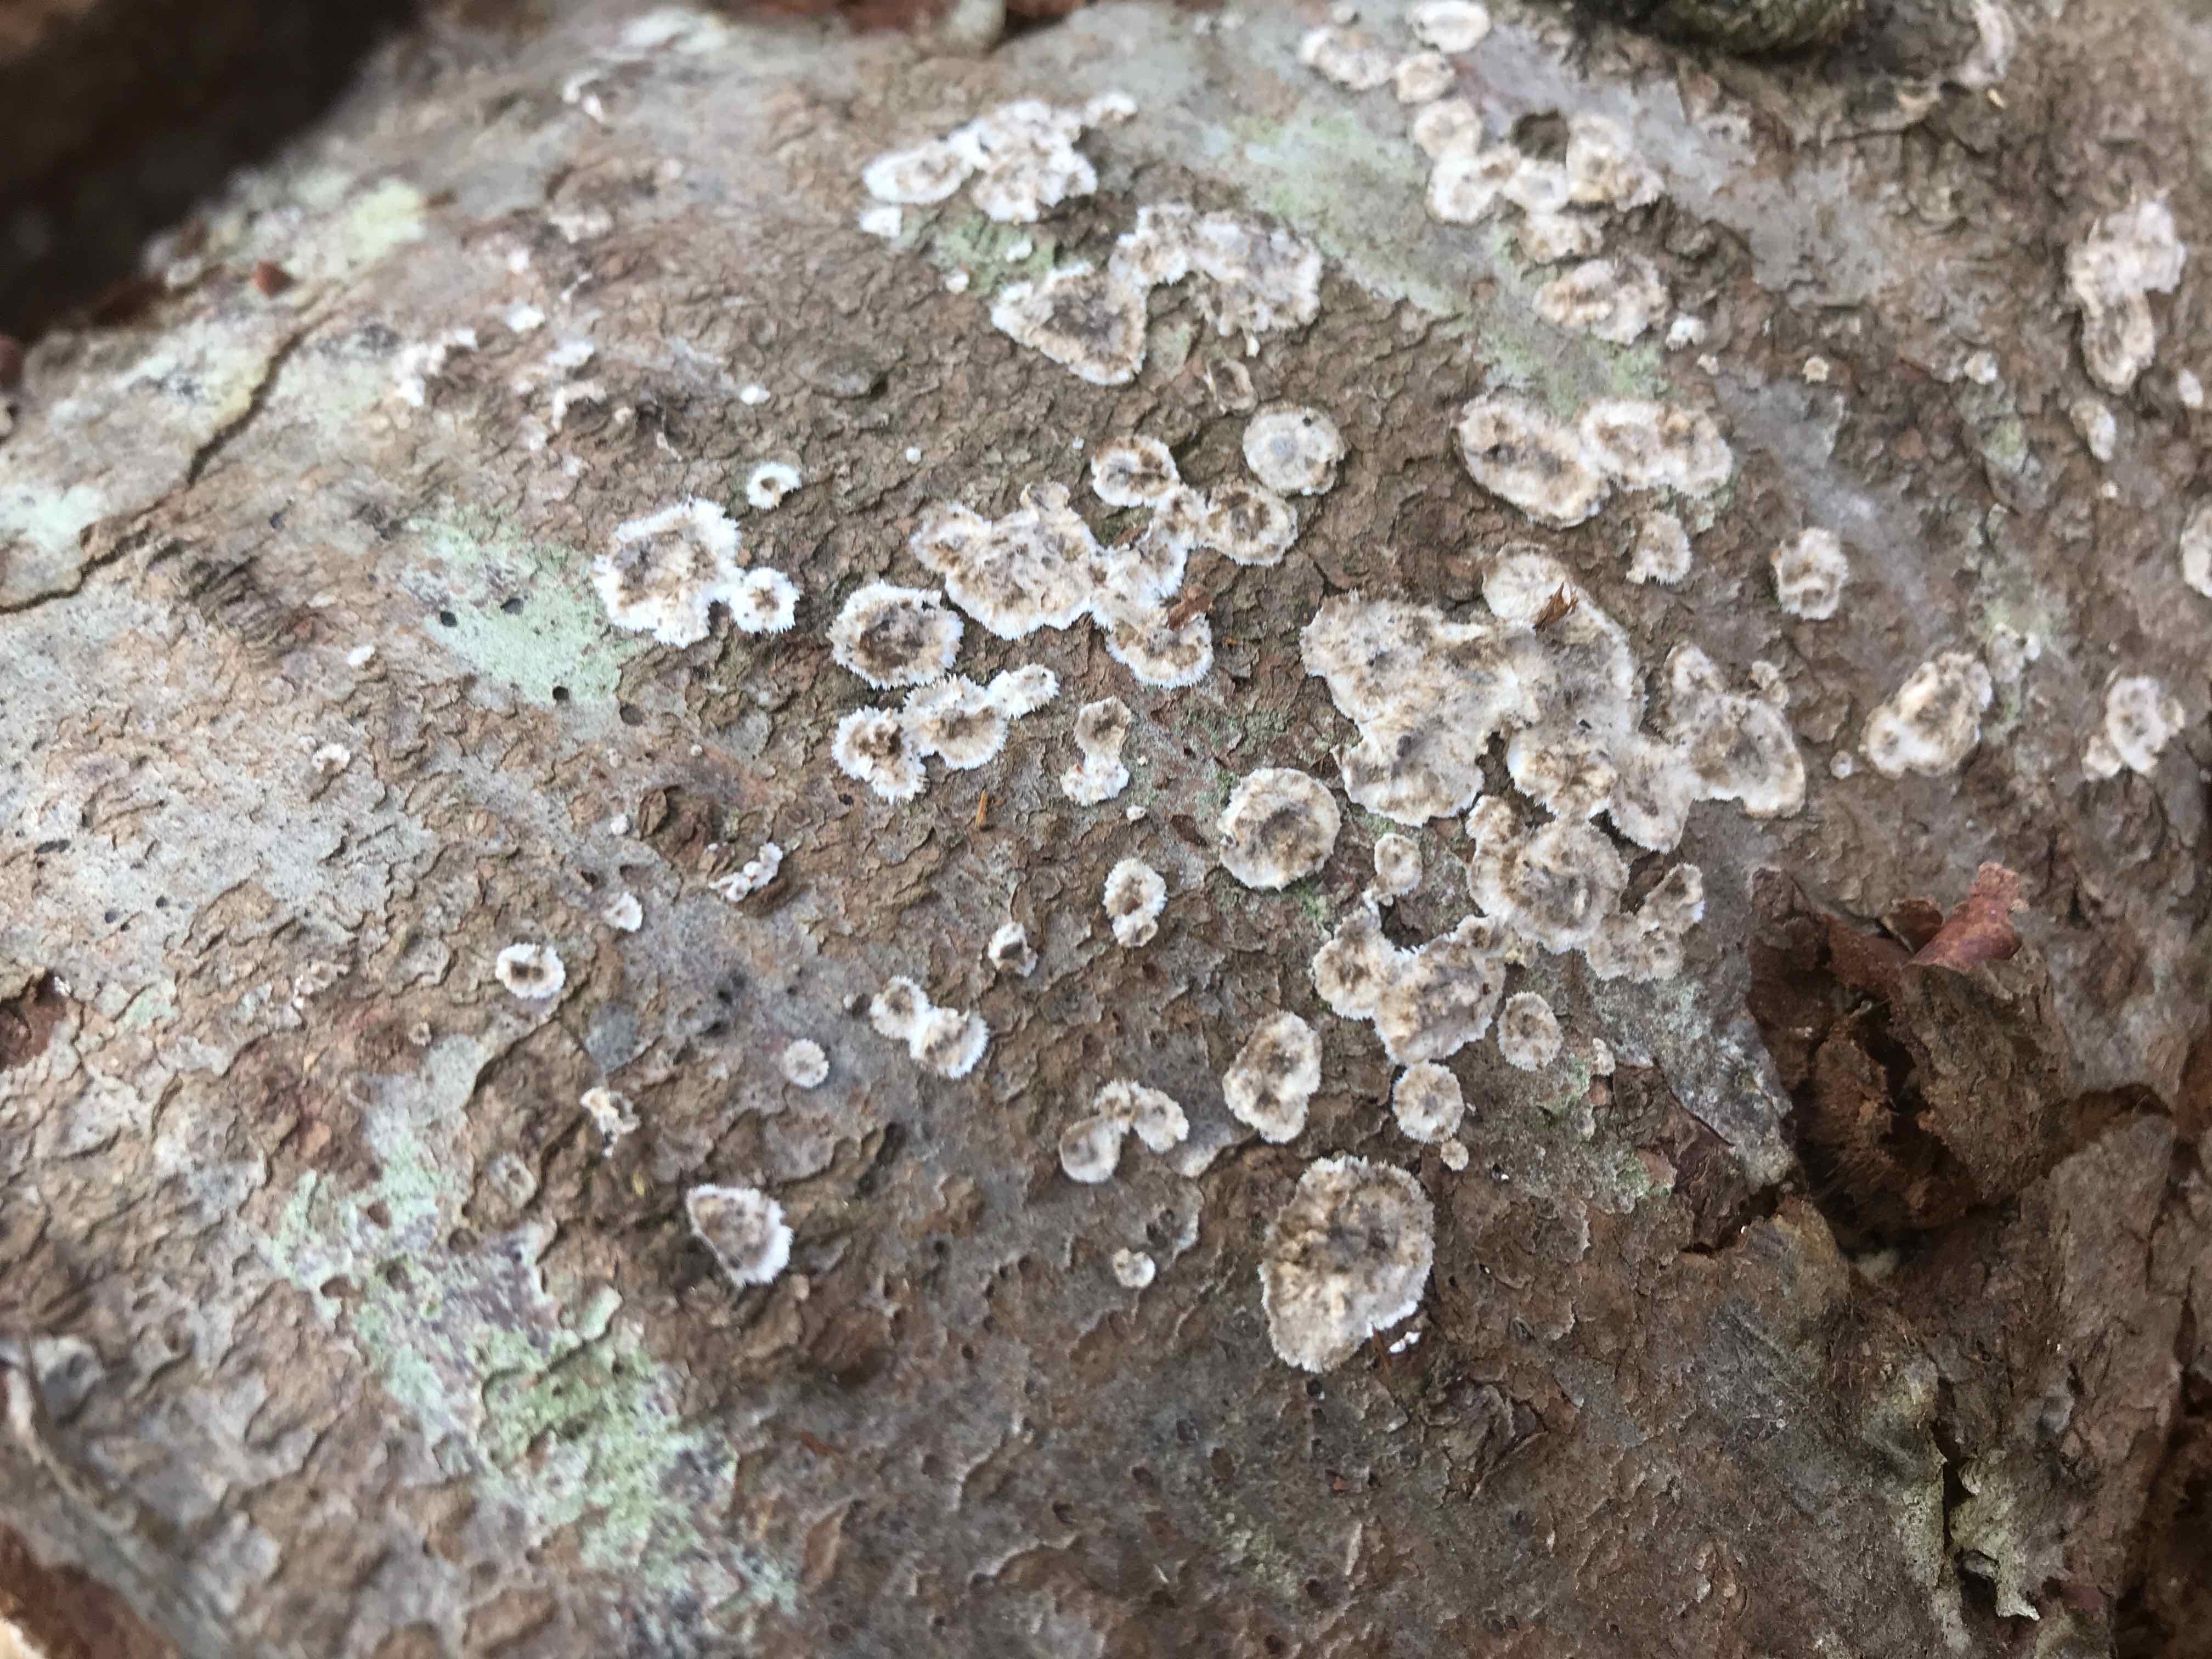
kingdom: Fungi
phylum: Basidiomycota
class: Agaricomycetes
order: Russulales
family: Echinodontiaceae
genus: Amylostereum
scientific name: Amylostereum chailletii
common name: gran-lædersvamp
